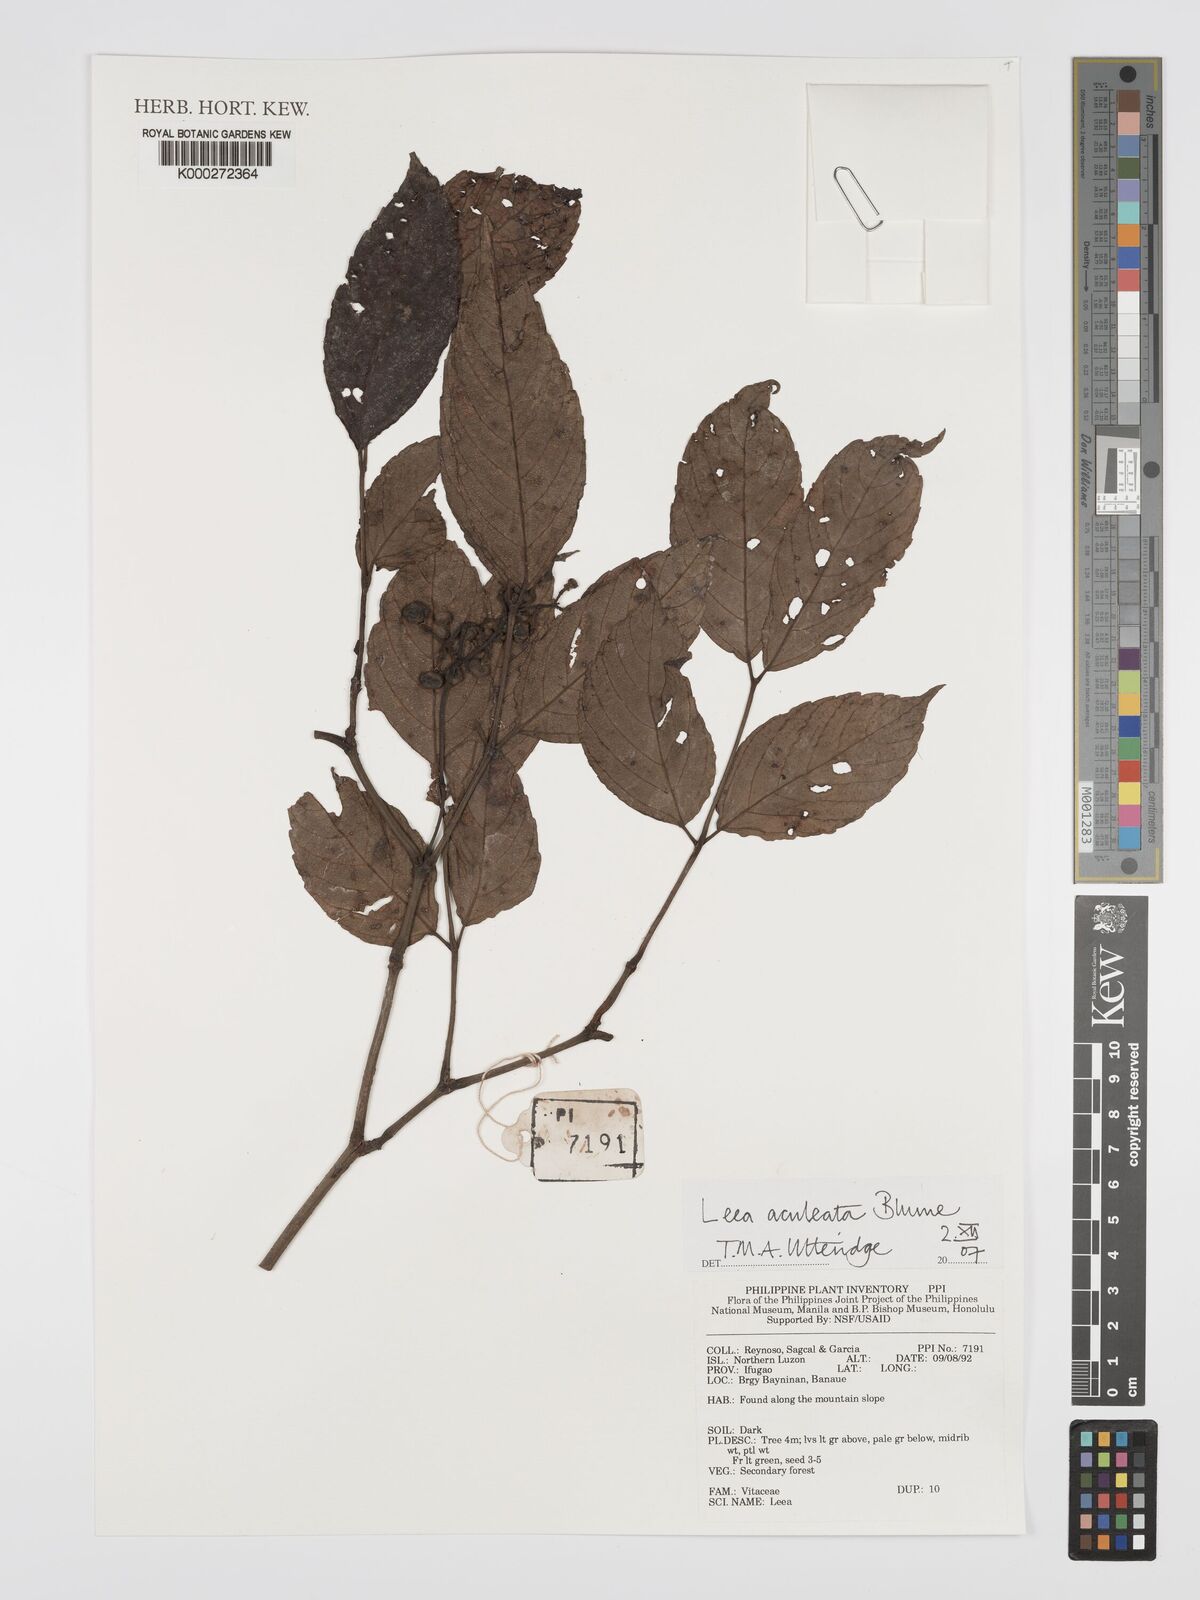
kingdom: Plantae
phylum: Tracheophyta
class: Magnoliopsida
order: Vitales
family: Vitaceae
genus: Leea
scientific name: Leea aculeata
